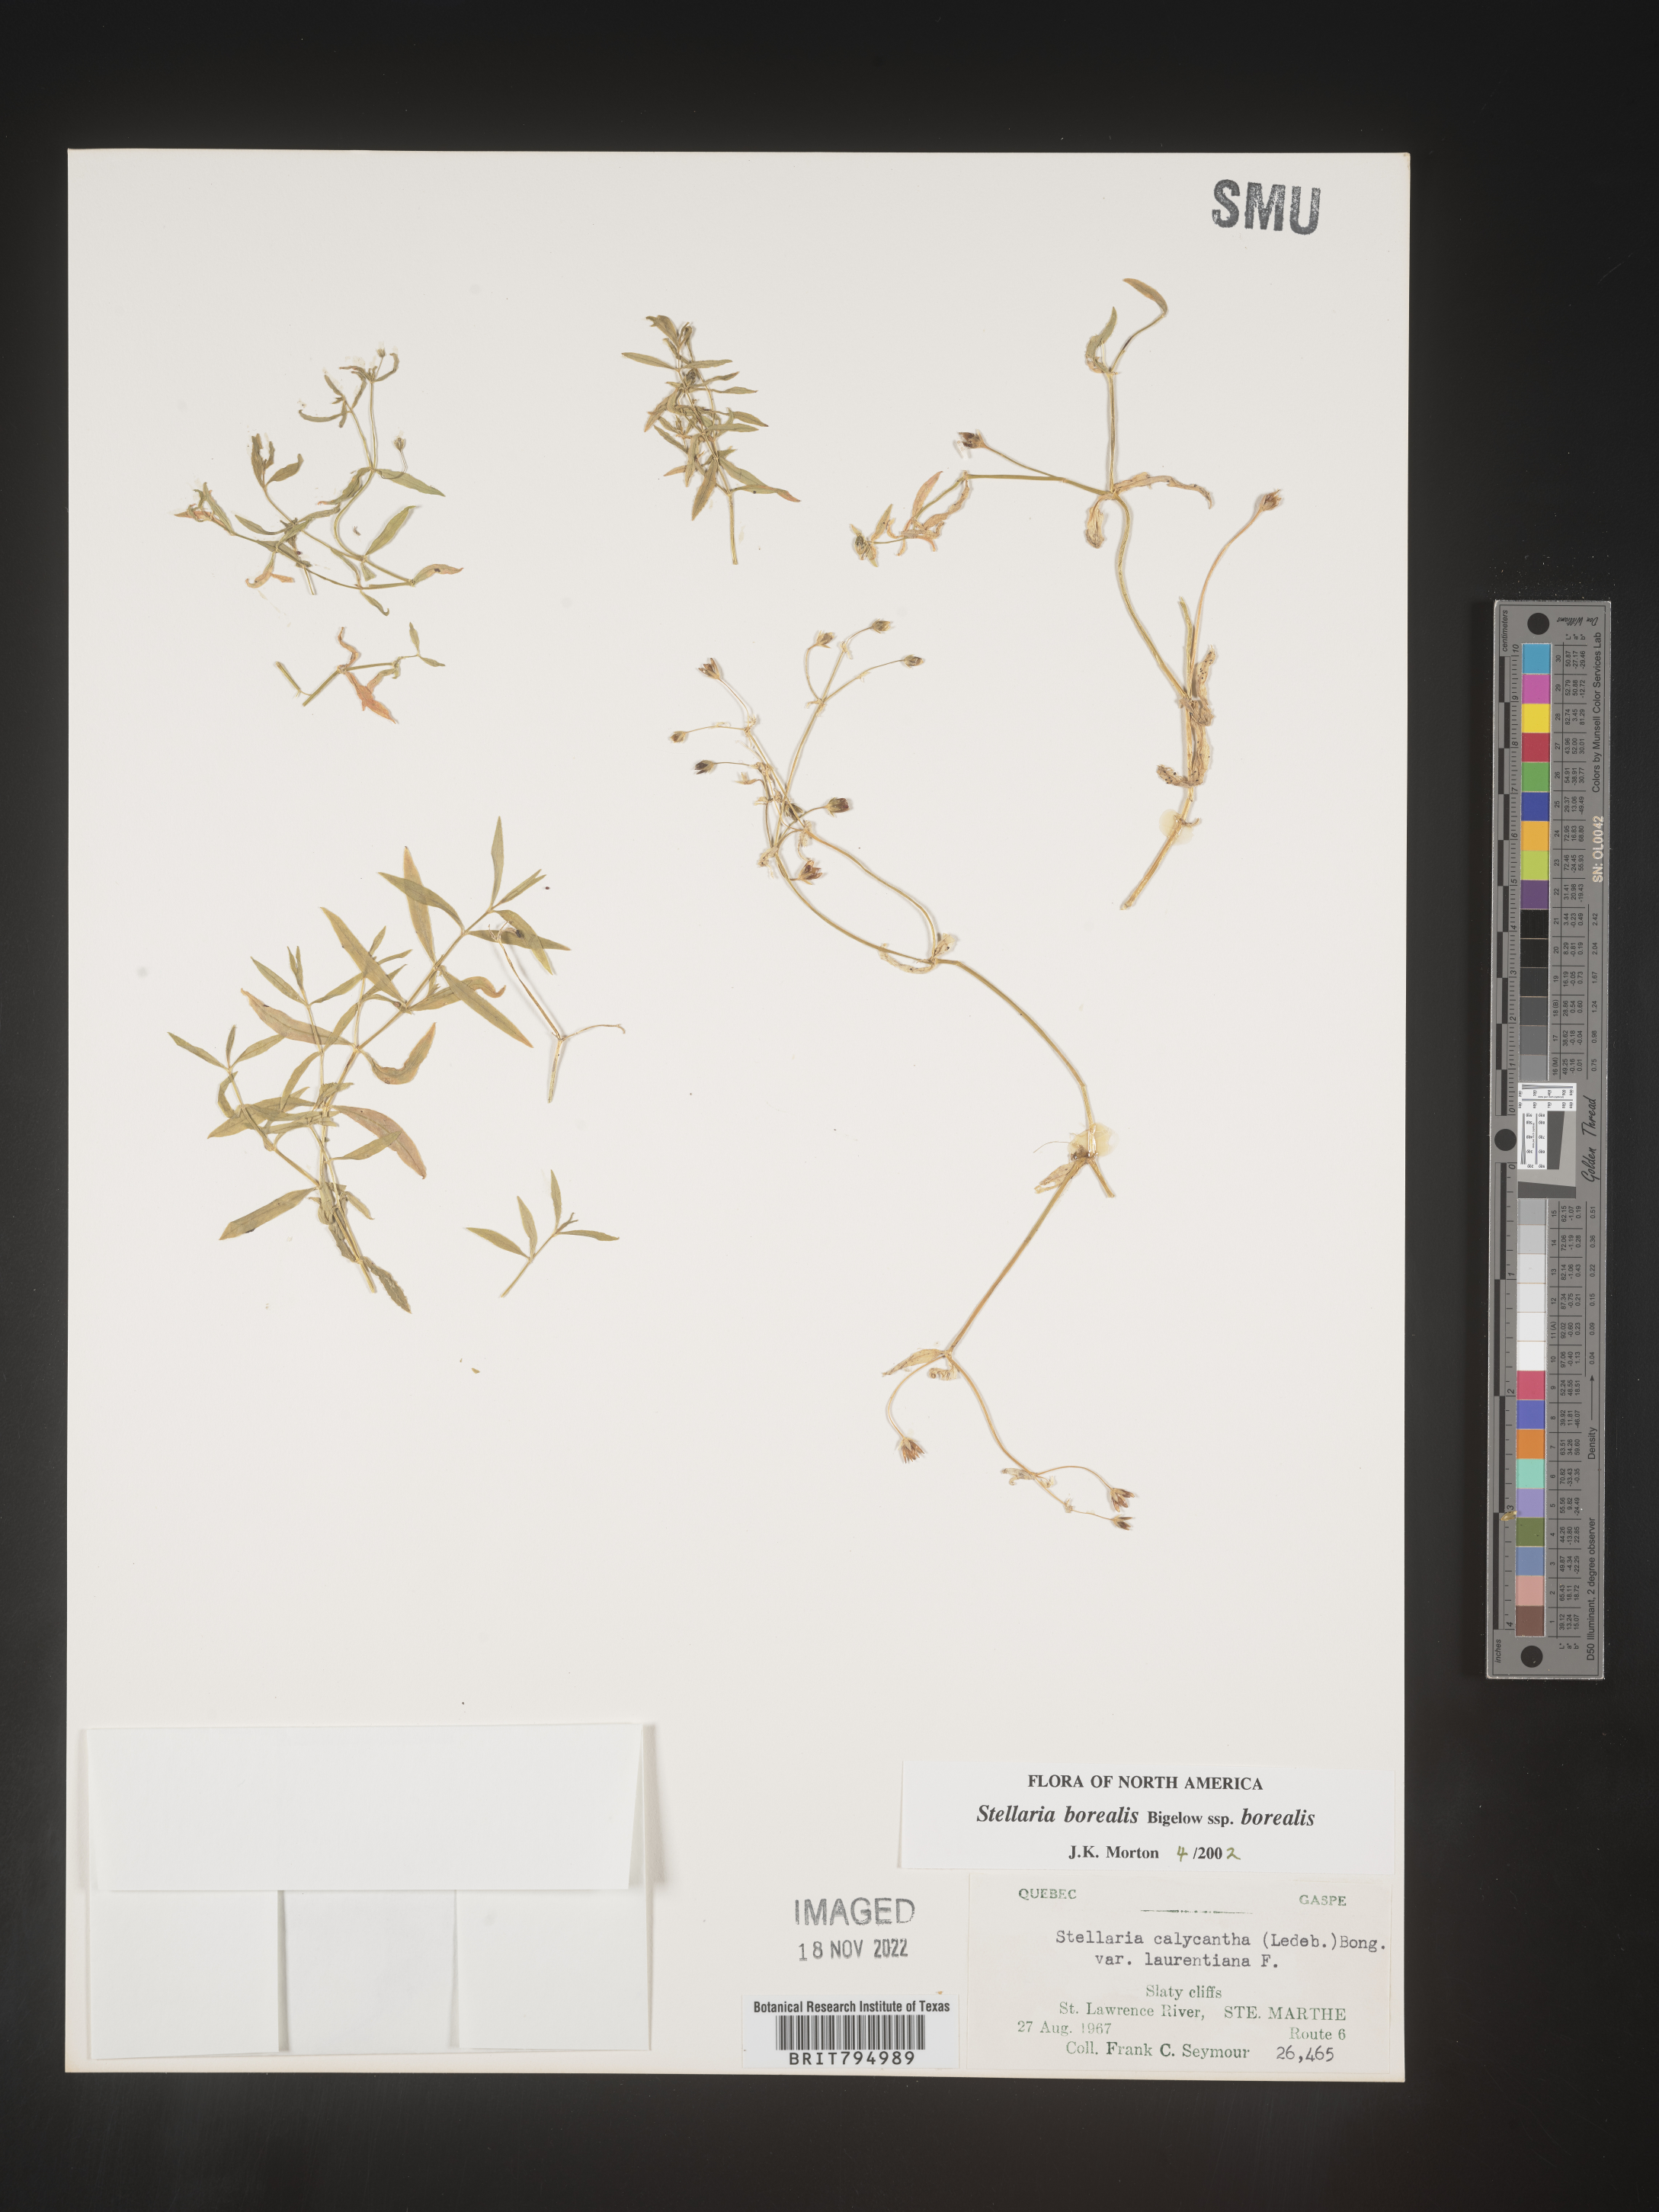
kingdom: Plantae
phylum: Tracheophyta
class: Magnoliopsida
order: Caryophyllales
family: Caryophyllaceae
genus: Stellaria
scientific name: Stellaria borealis
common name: Boreal starwort
